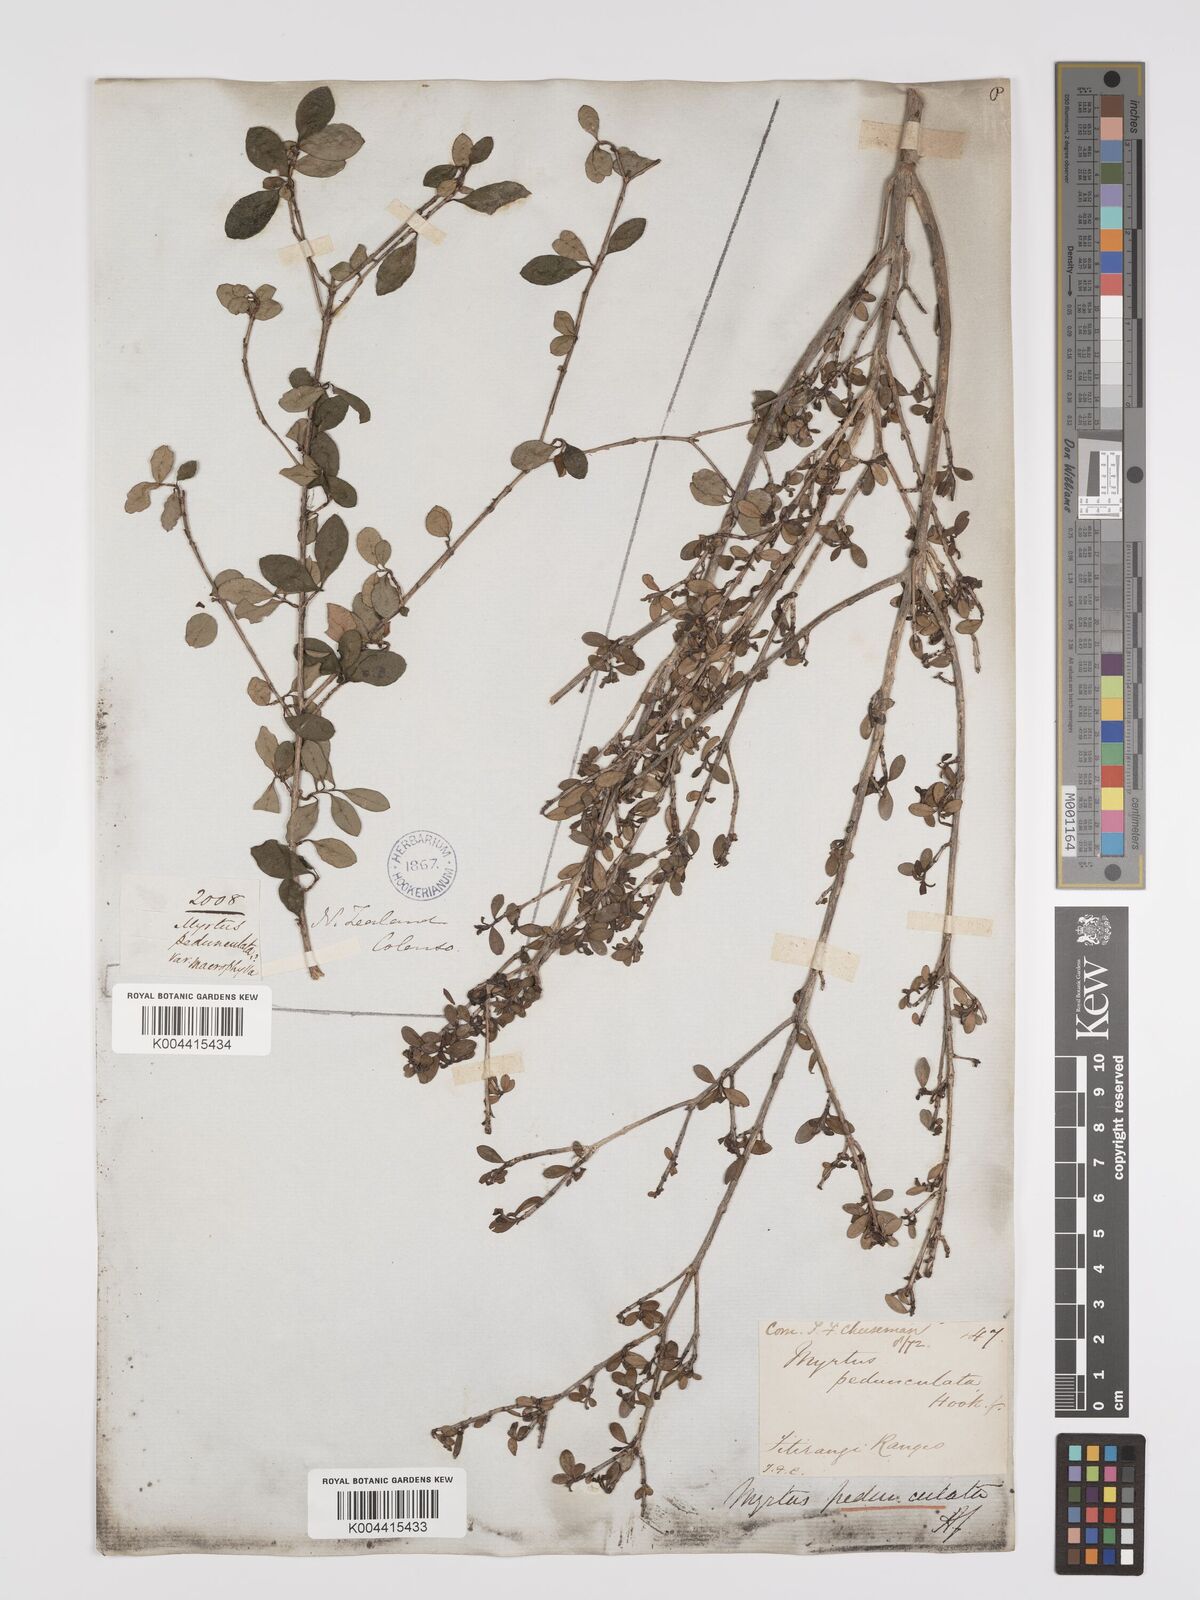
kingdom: Plantae
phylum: Tracheophyta
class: Magnoliopsida
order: Myrtales
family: Myrtaceae
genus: Neomyrtus
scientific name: Neomyrtus pedunculata
